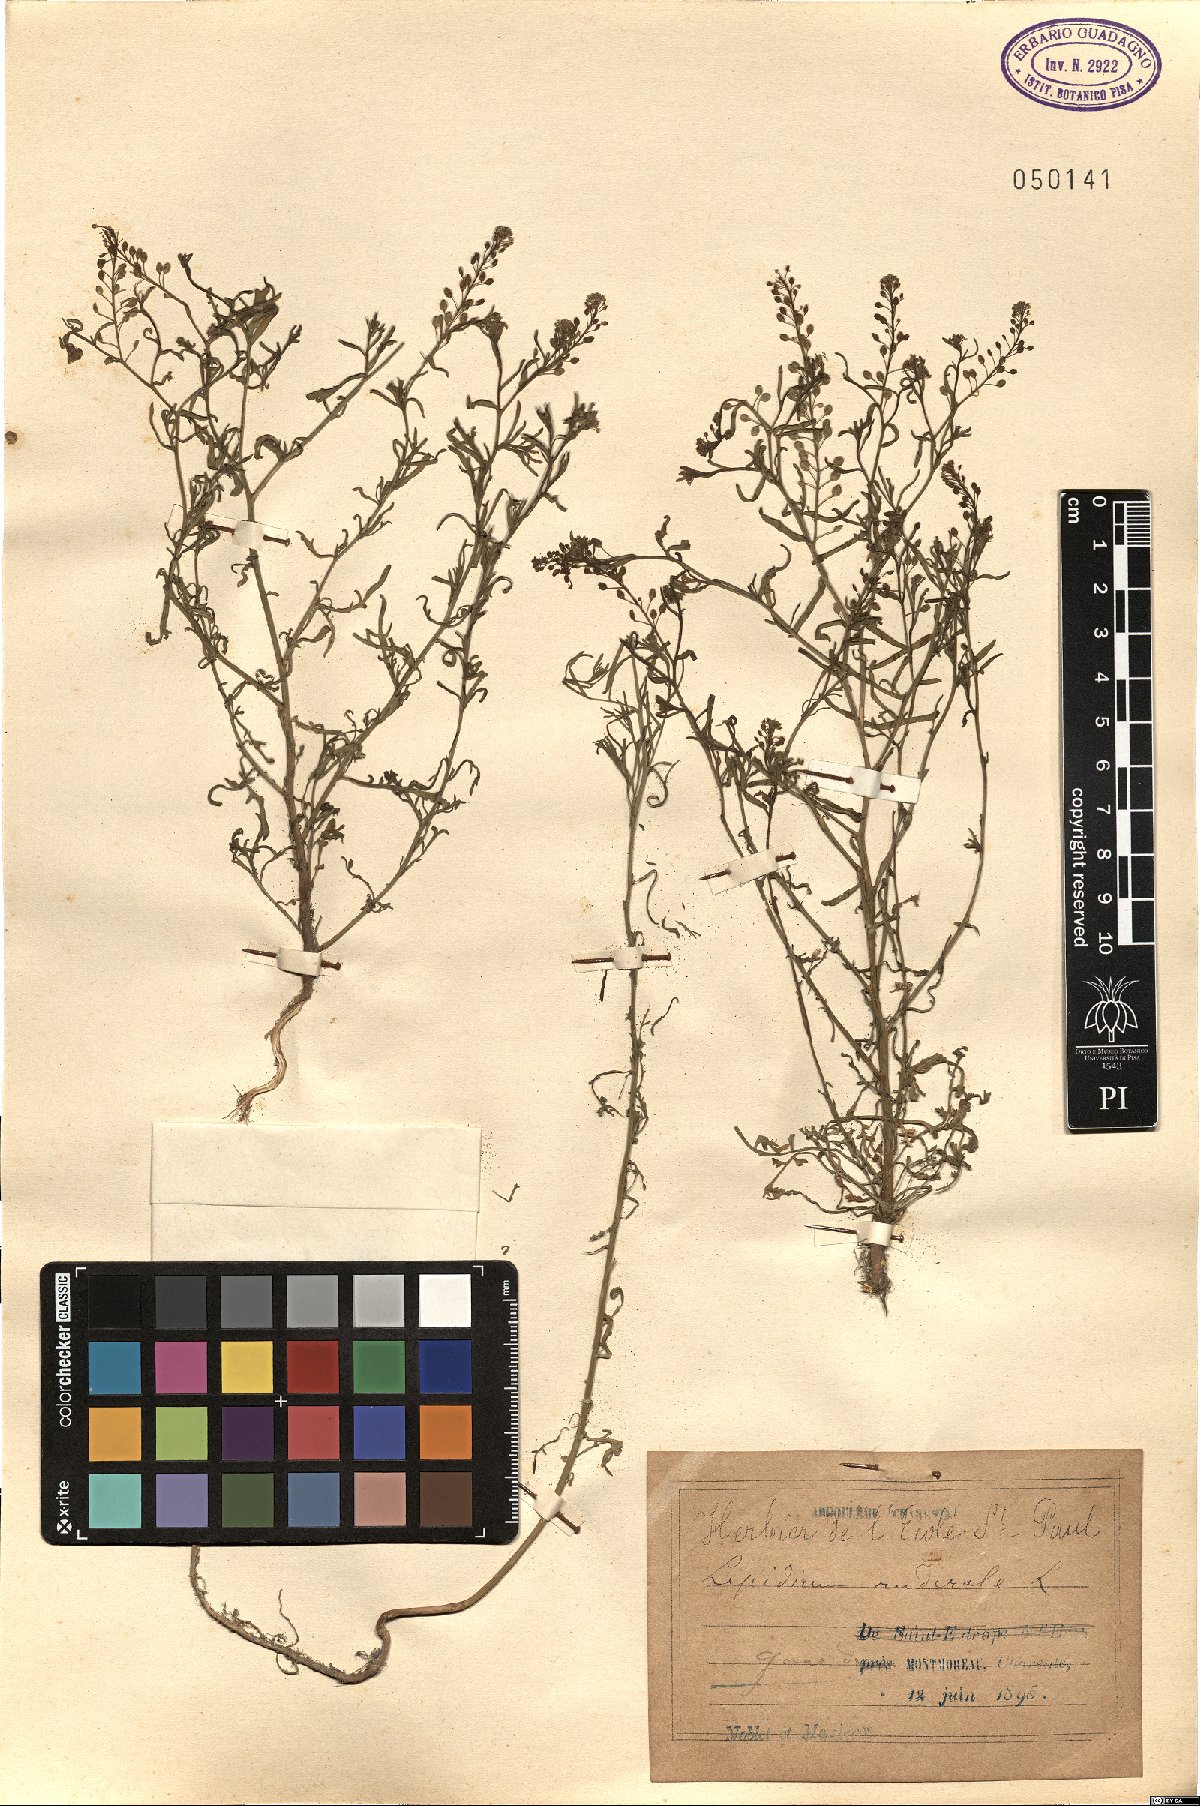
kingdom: Plantae
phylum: Tracheophyta
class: Magnoliopsida
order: Brassicales
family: Brassicaceae
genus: Lepidium
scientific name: Lepidium ruderale
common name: Narrow-leaved pepperwort
